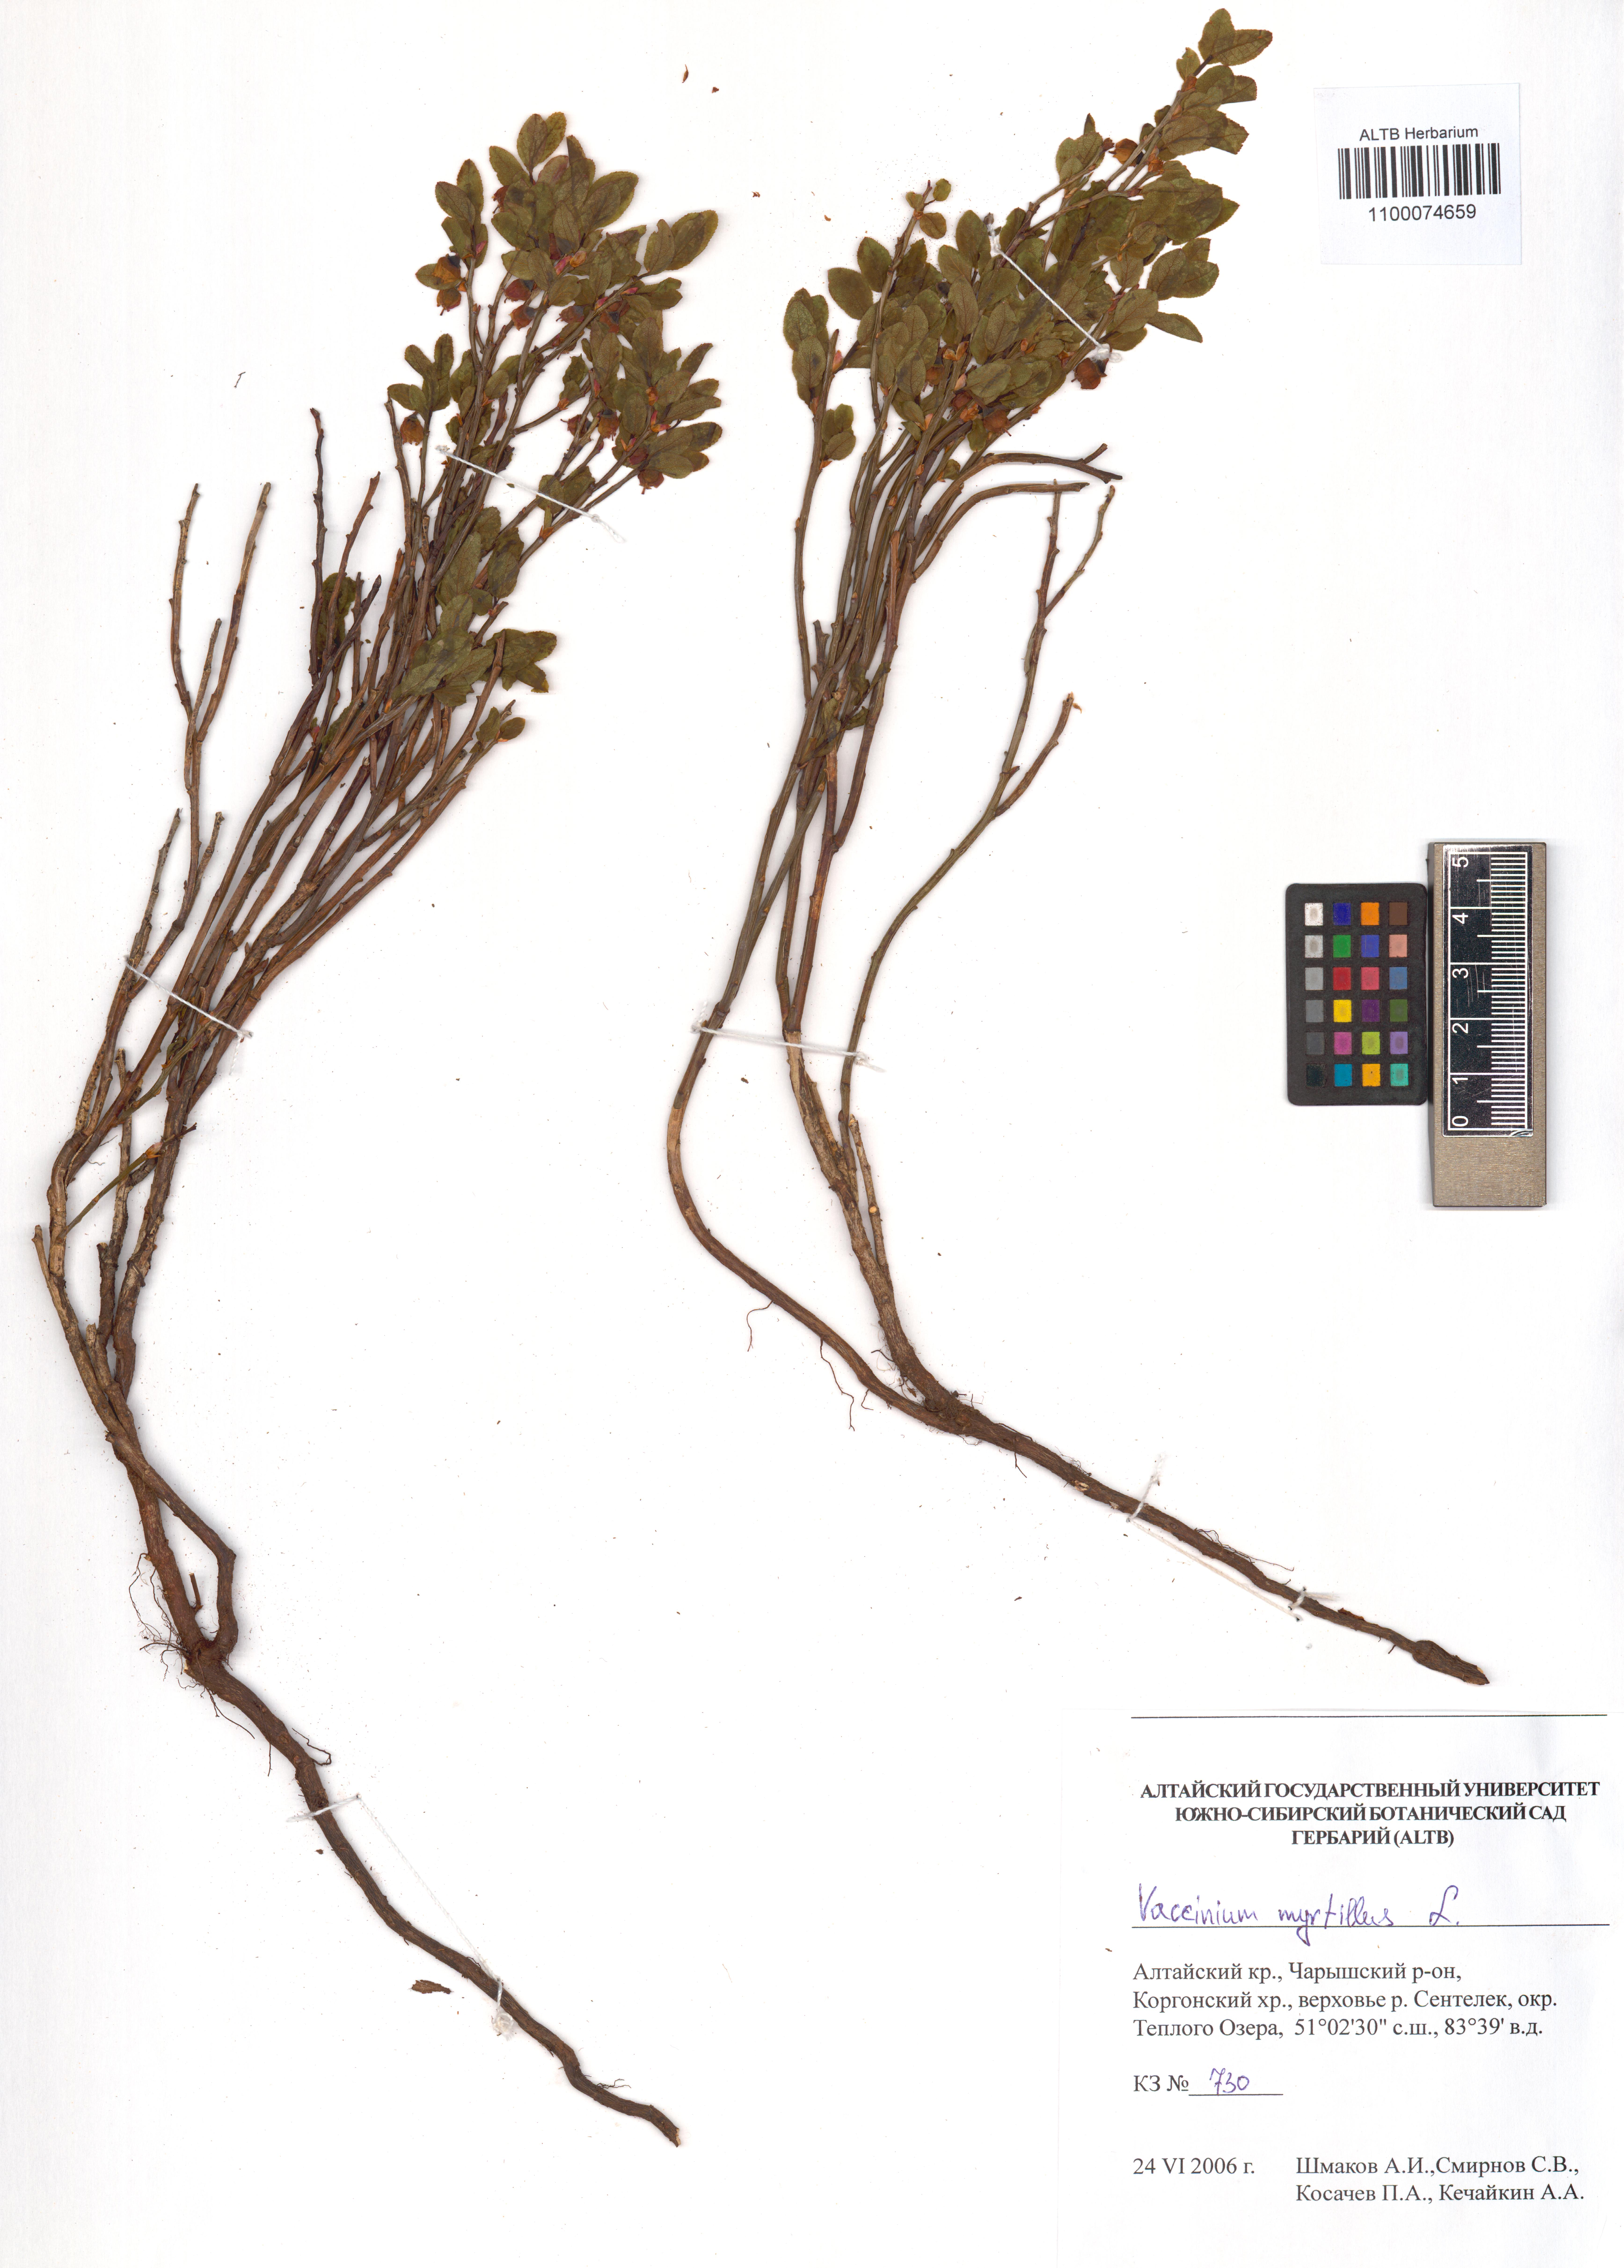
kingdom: Plantae
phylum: Tracheophyta
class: Magnoliopsida
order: Ericales
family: Ericaceae
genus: Vaccinium
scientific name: Vaccinium myrtillus
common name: Bilberry
